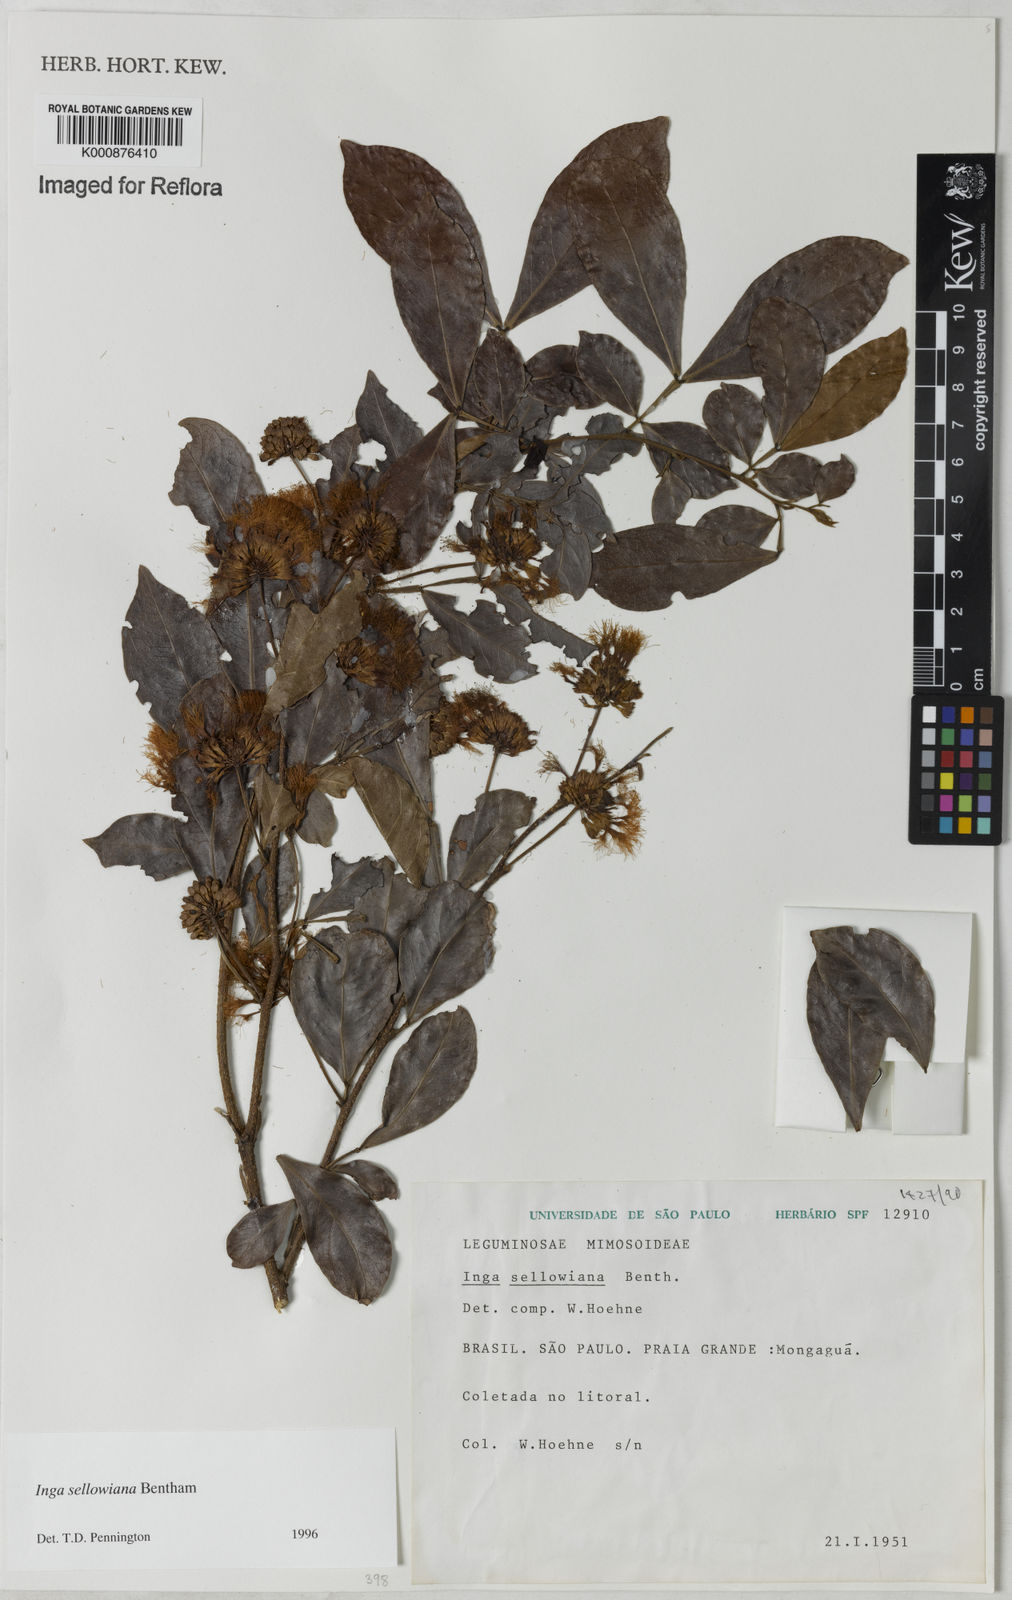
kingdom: Plantae
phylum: Tracheophyta
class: Magnoliopsida
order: Fabales
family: Fabaceae
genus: Inga
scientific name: Inga sellowiana
